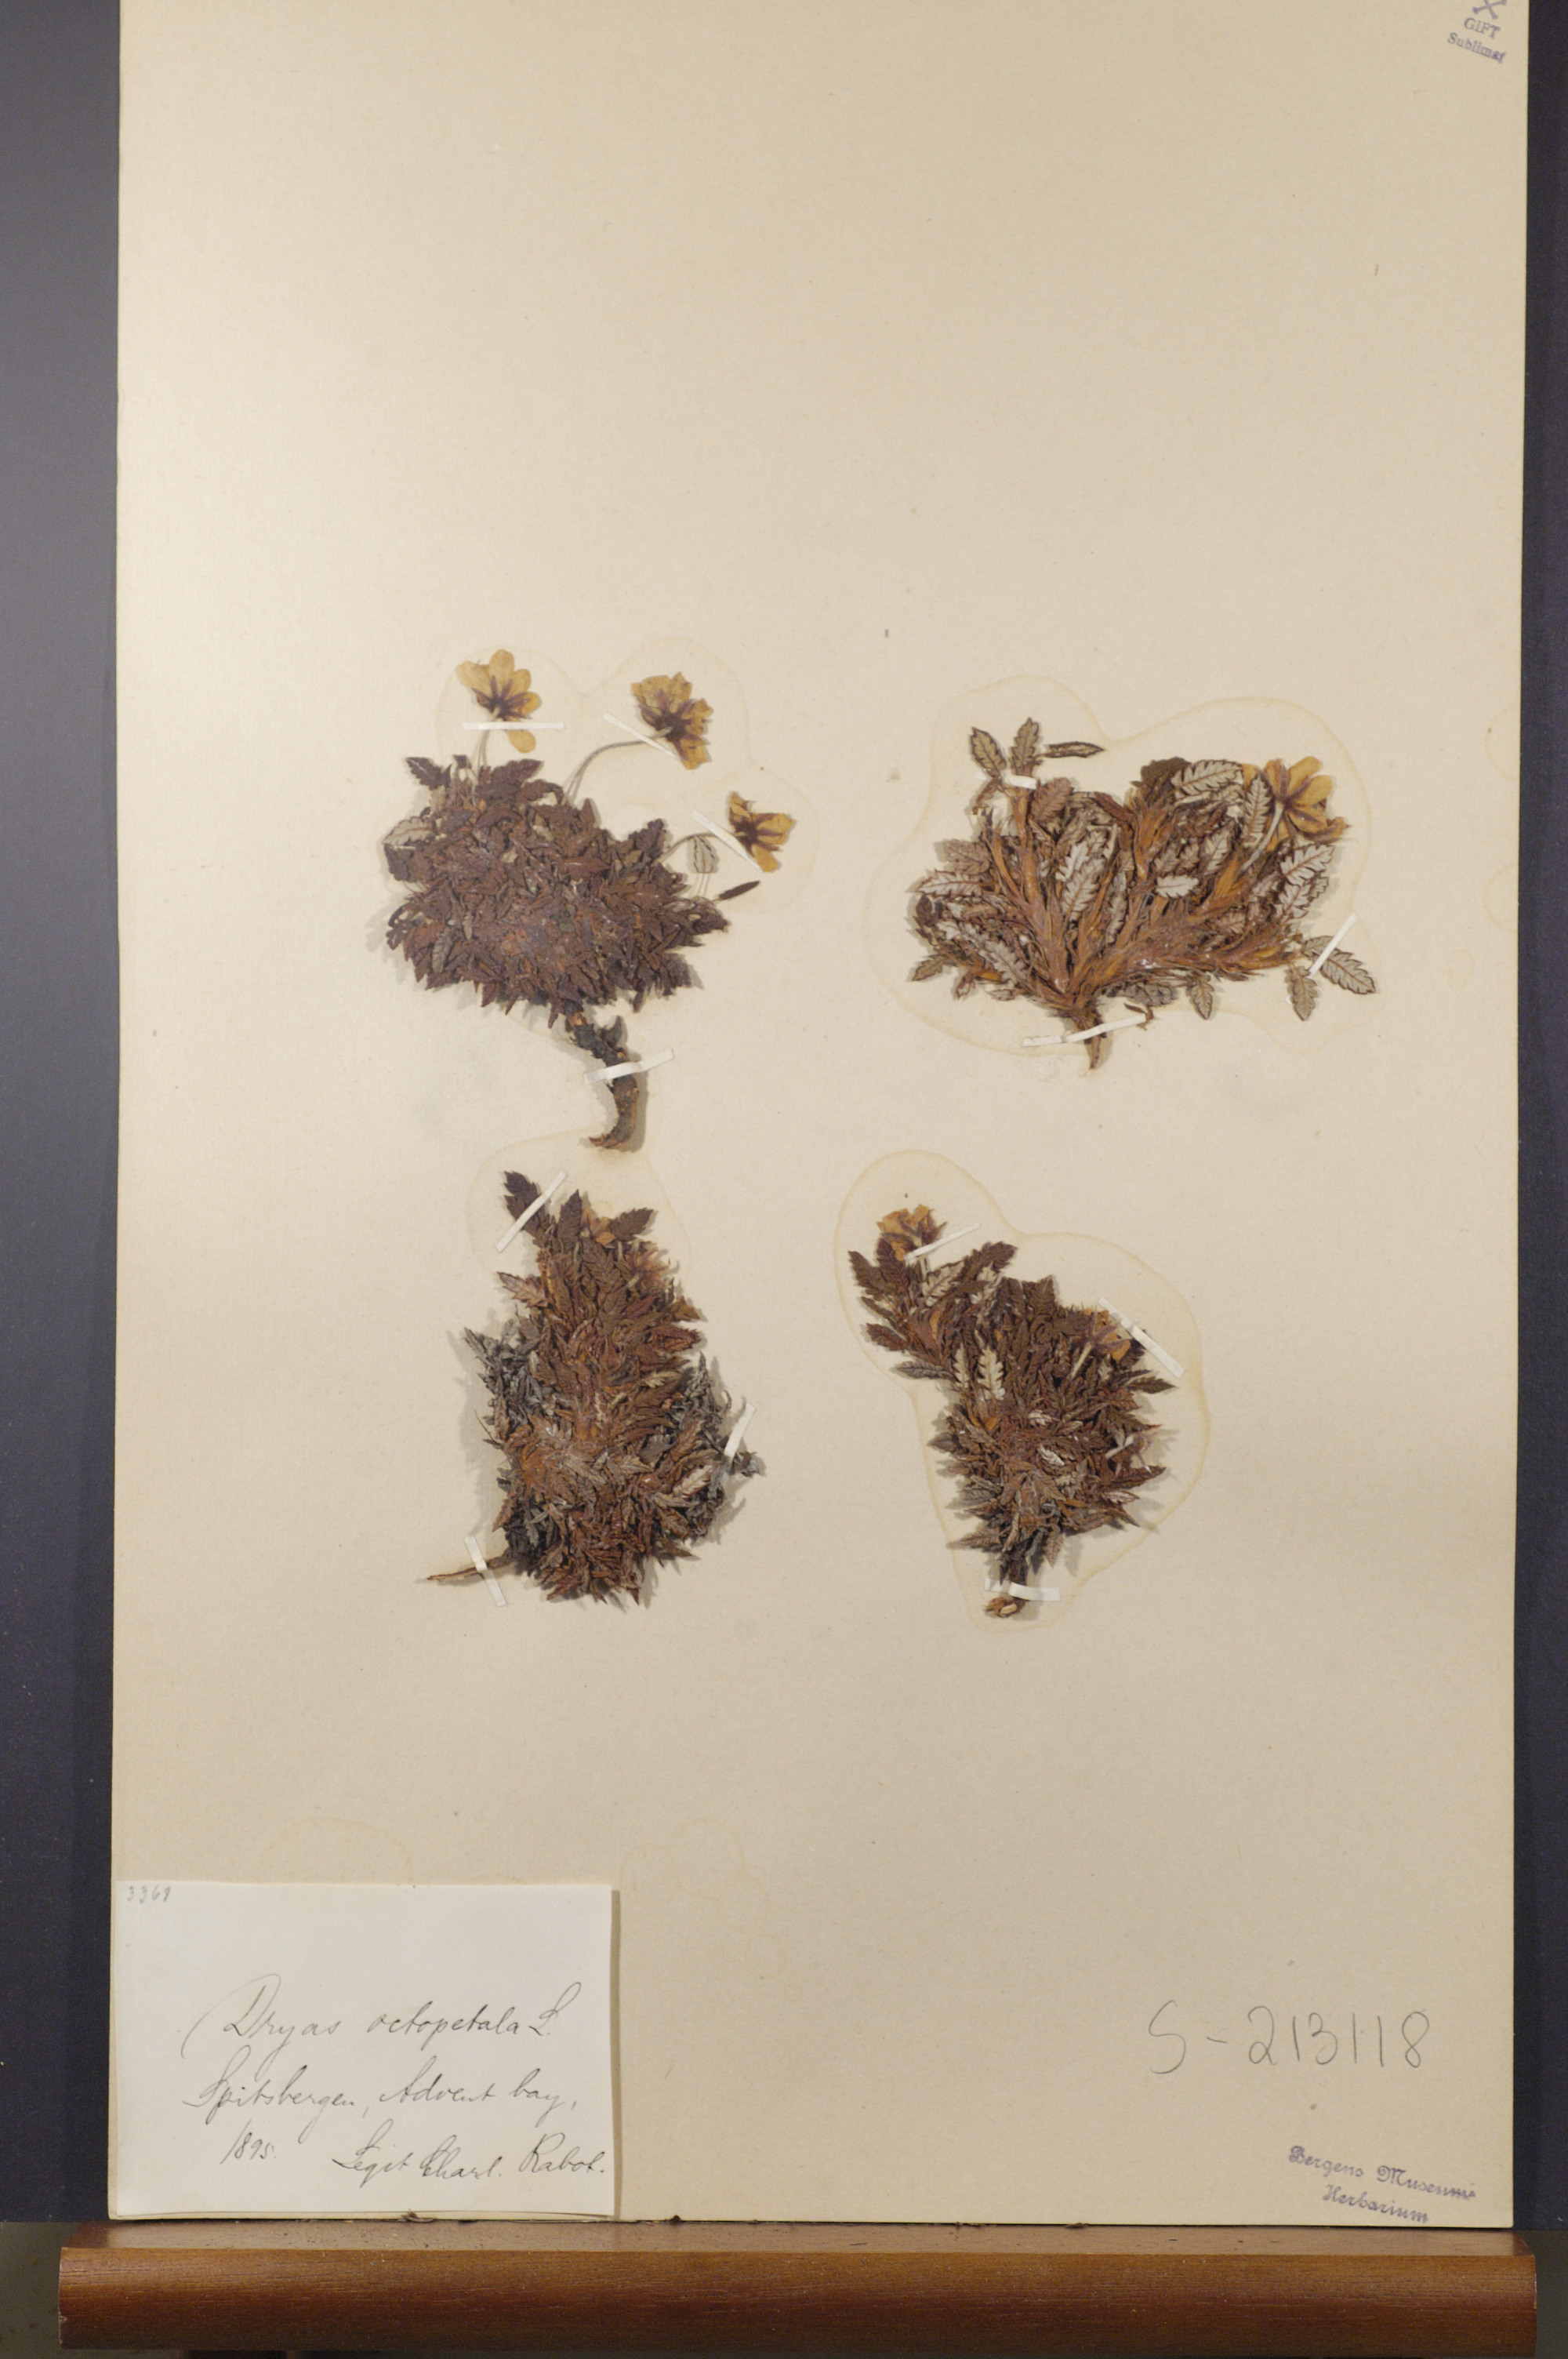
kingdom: Plantae
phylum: Tracheophyta
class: Magnoliopsida
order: Rosales
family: Rosaceae
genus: Dryas
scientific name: Dryas octopetala
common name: Eight-petal mountain-avens
